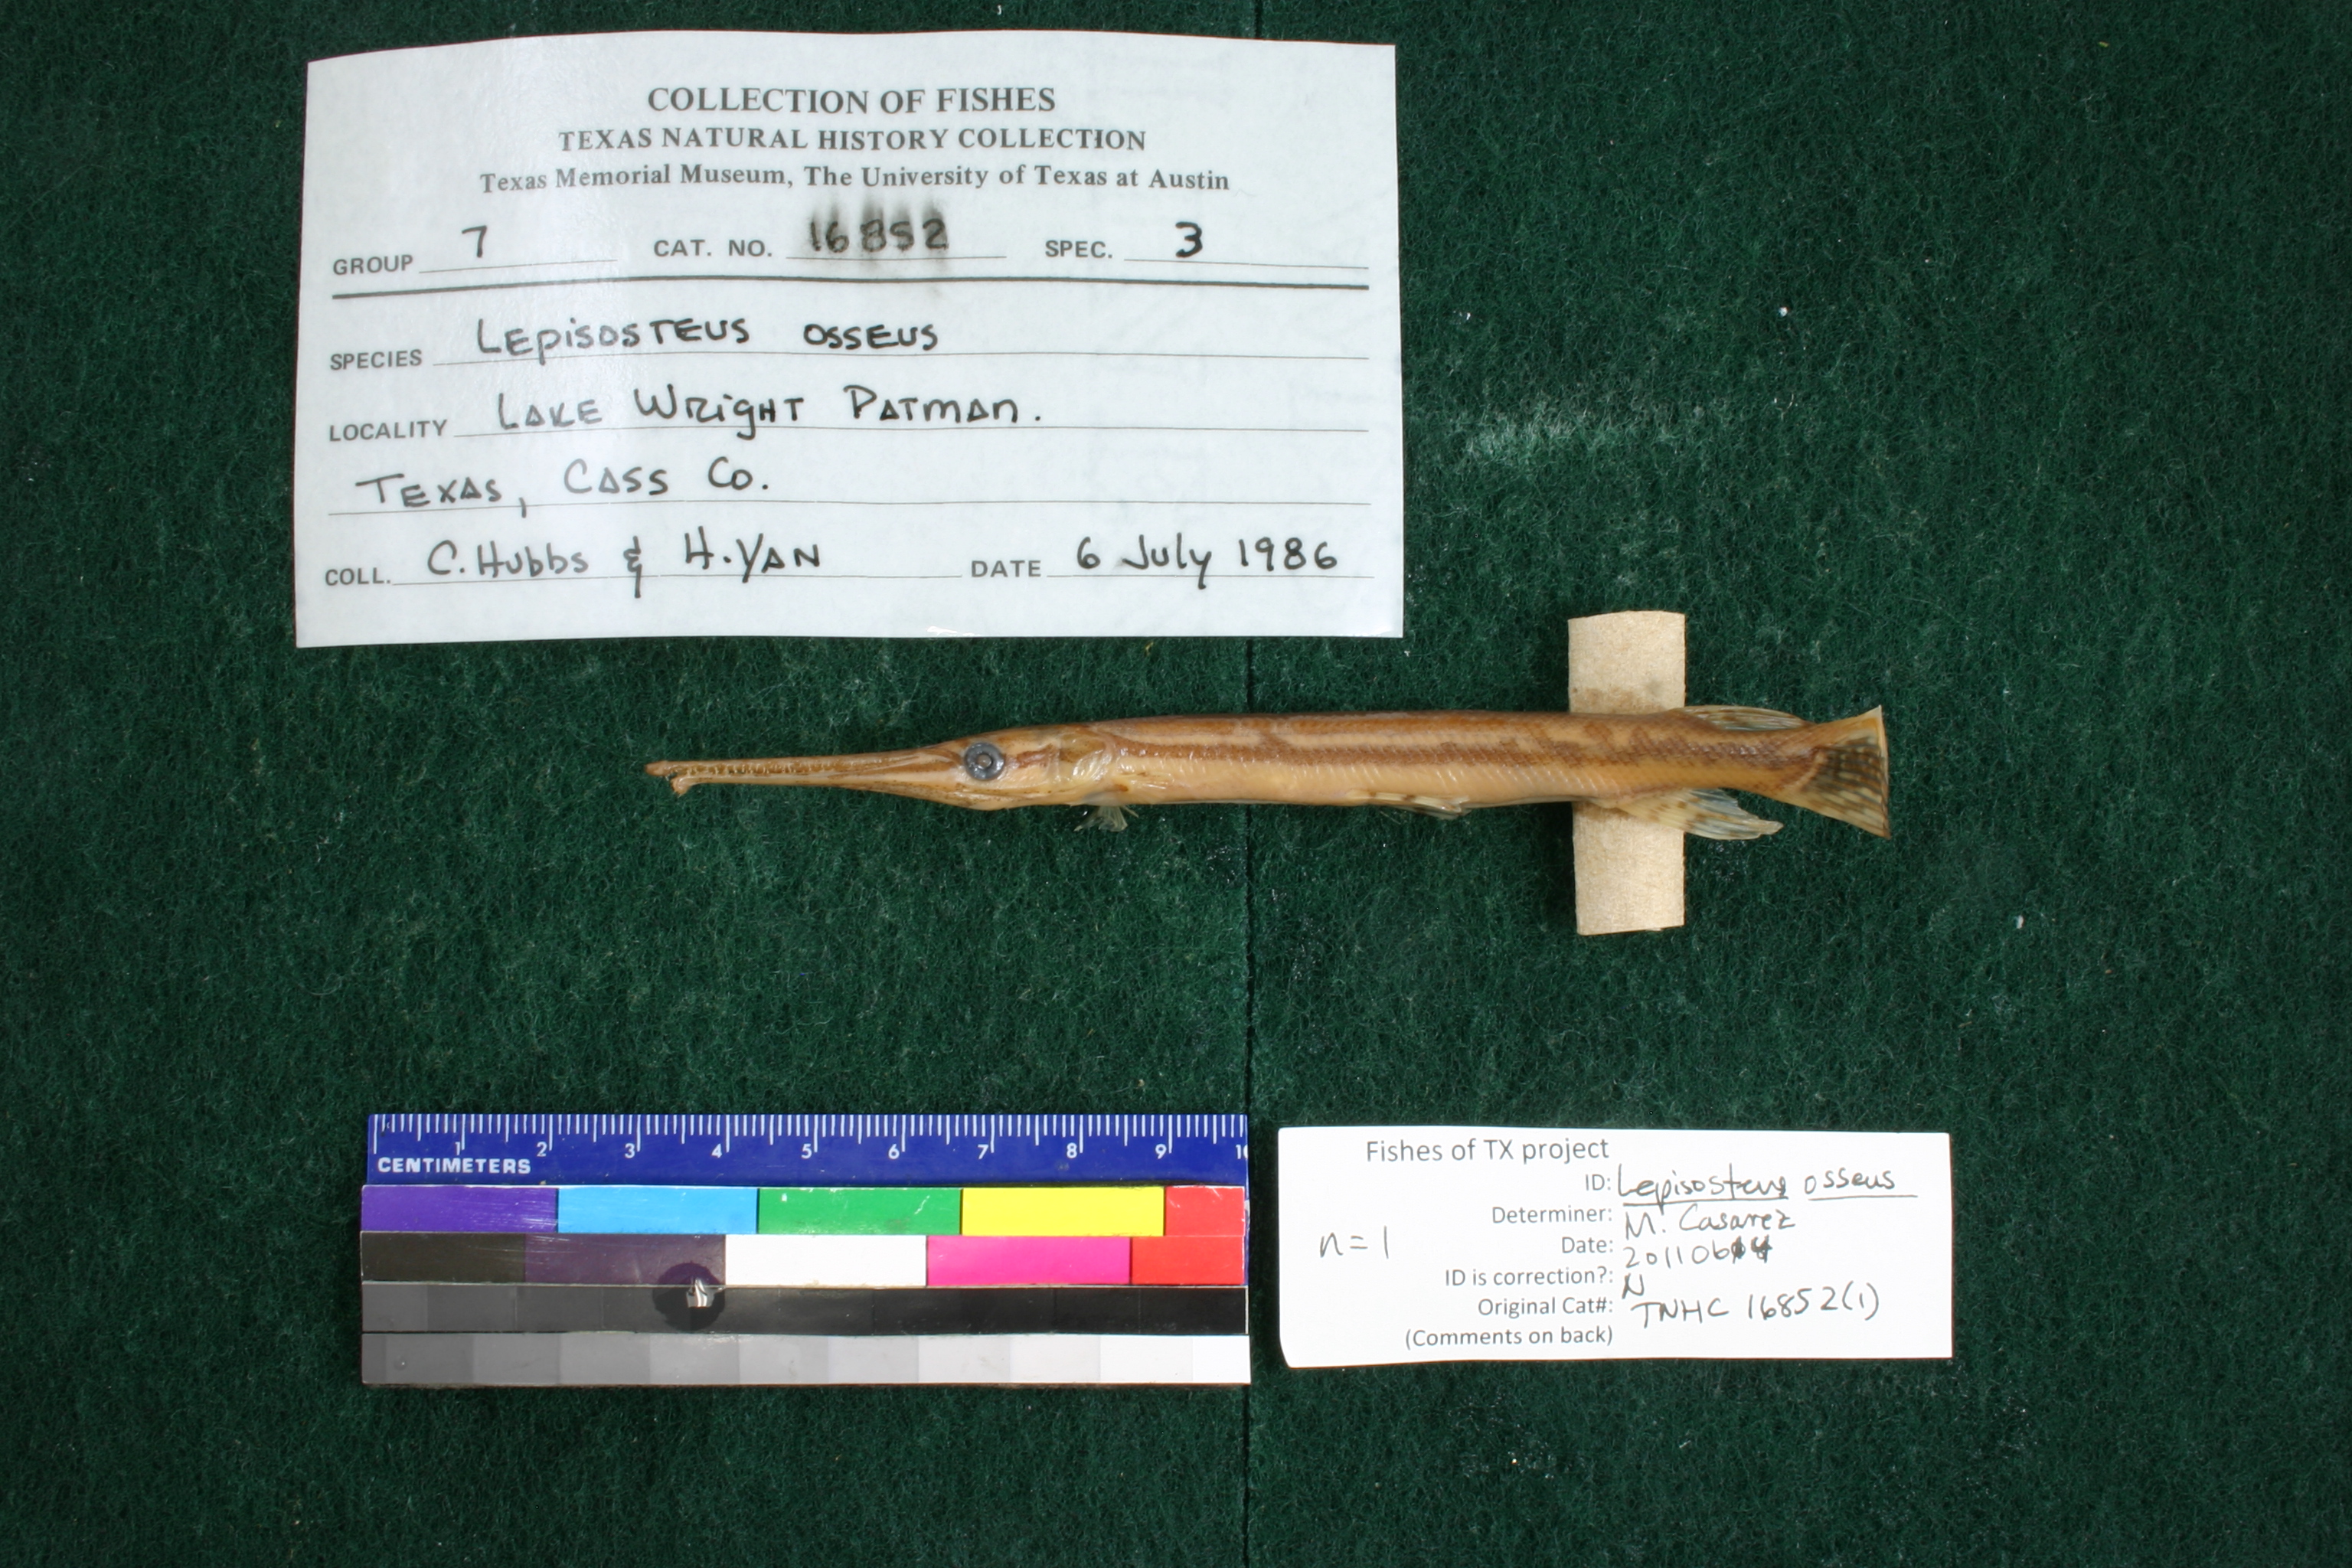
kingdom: Animalia
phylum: Chordata
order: Lepisosteiformes
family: Lepisosteidae
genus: Lepisosteus
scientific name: Lepisosteus osseus
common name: Longnose gar
